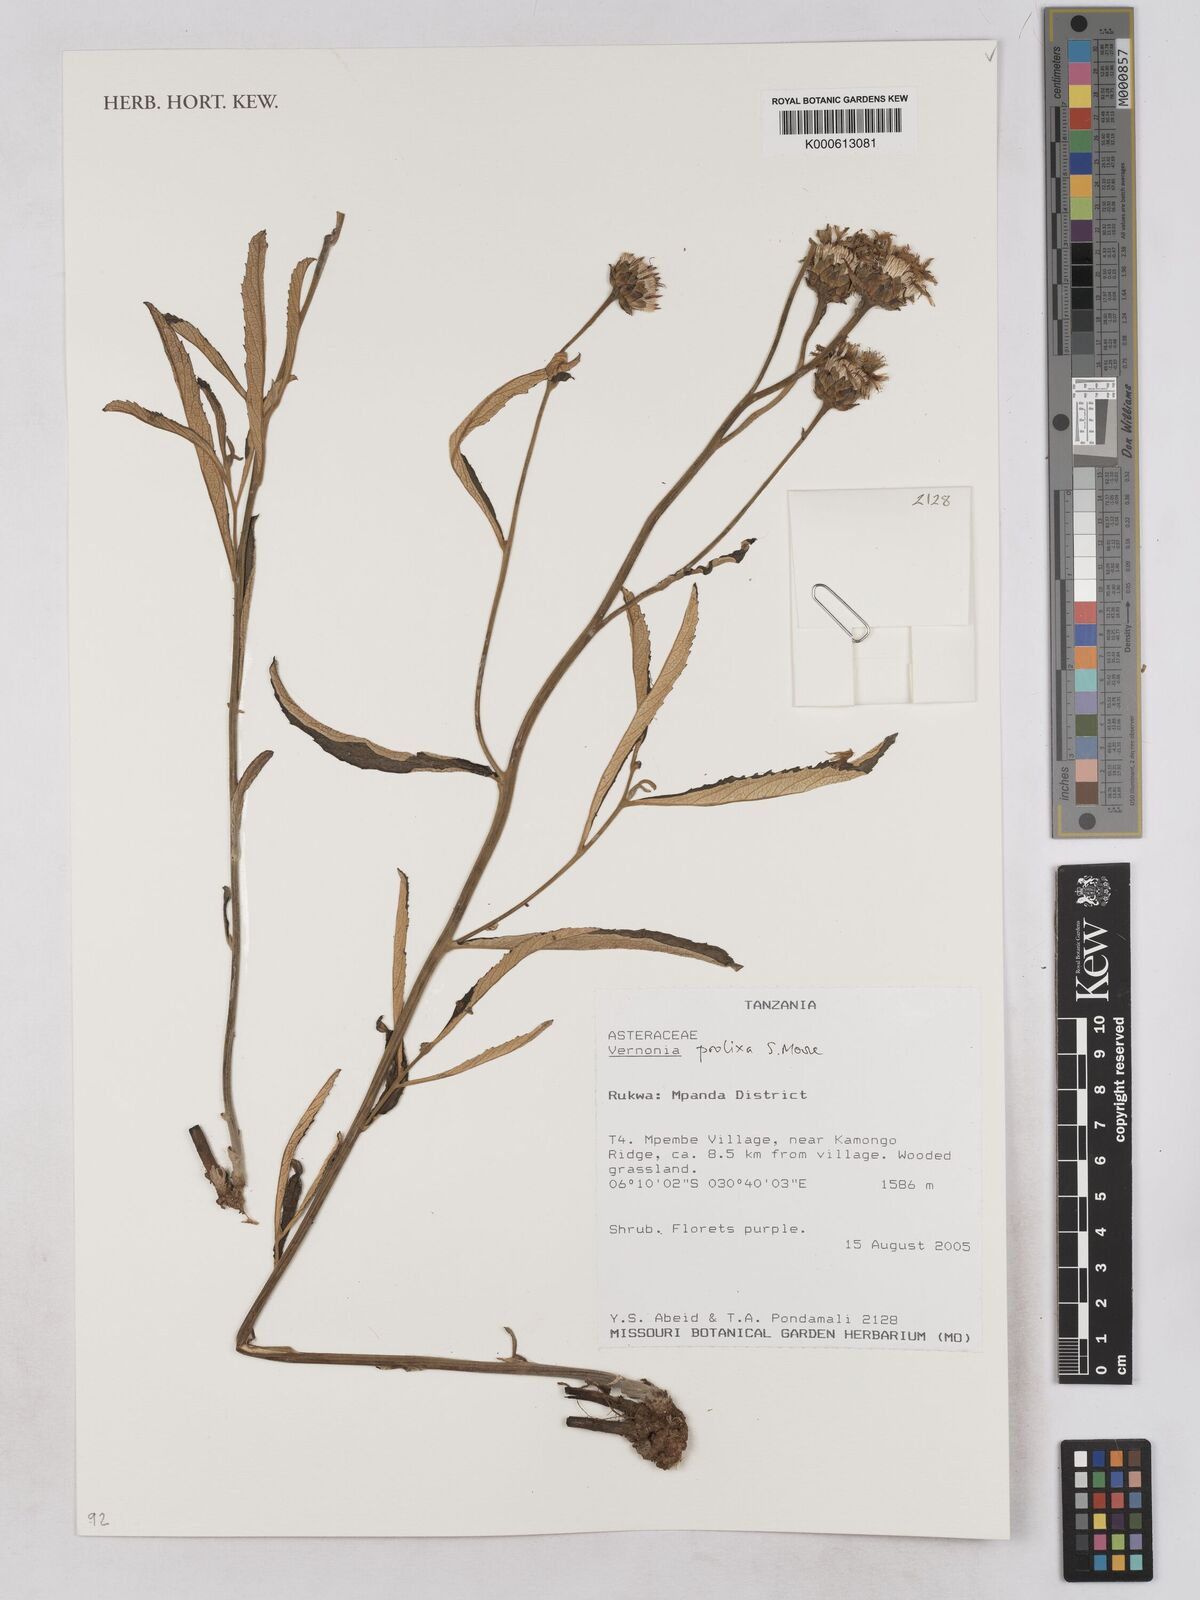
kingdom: Plantae
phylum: Tracheophyta
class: Magnoliopsida
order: Asterales
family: Asteraceae
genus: Baccharoides
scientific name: Baccharoides prolixa
